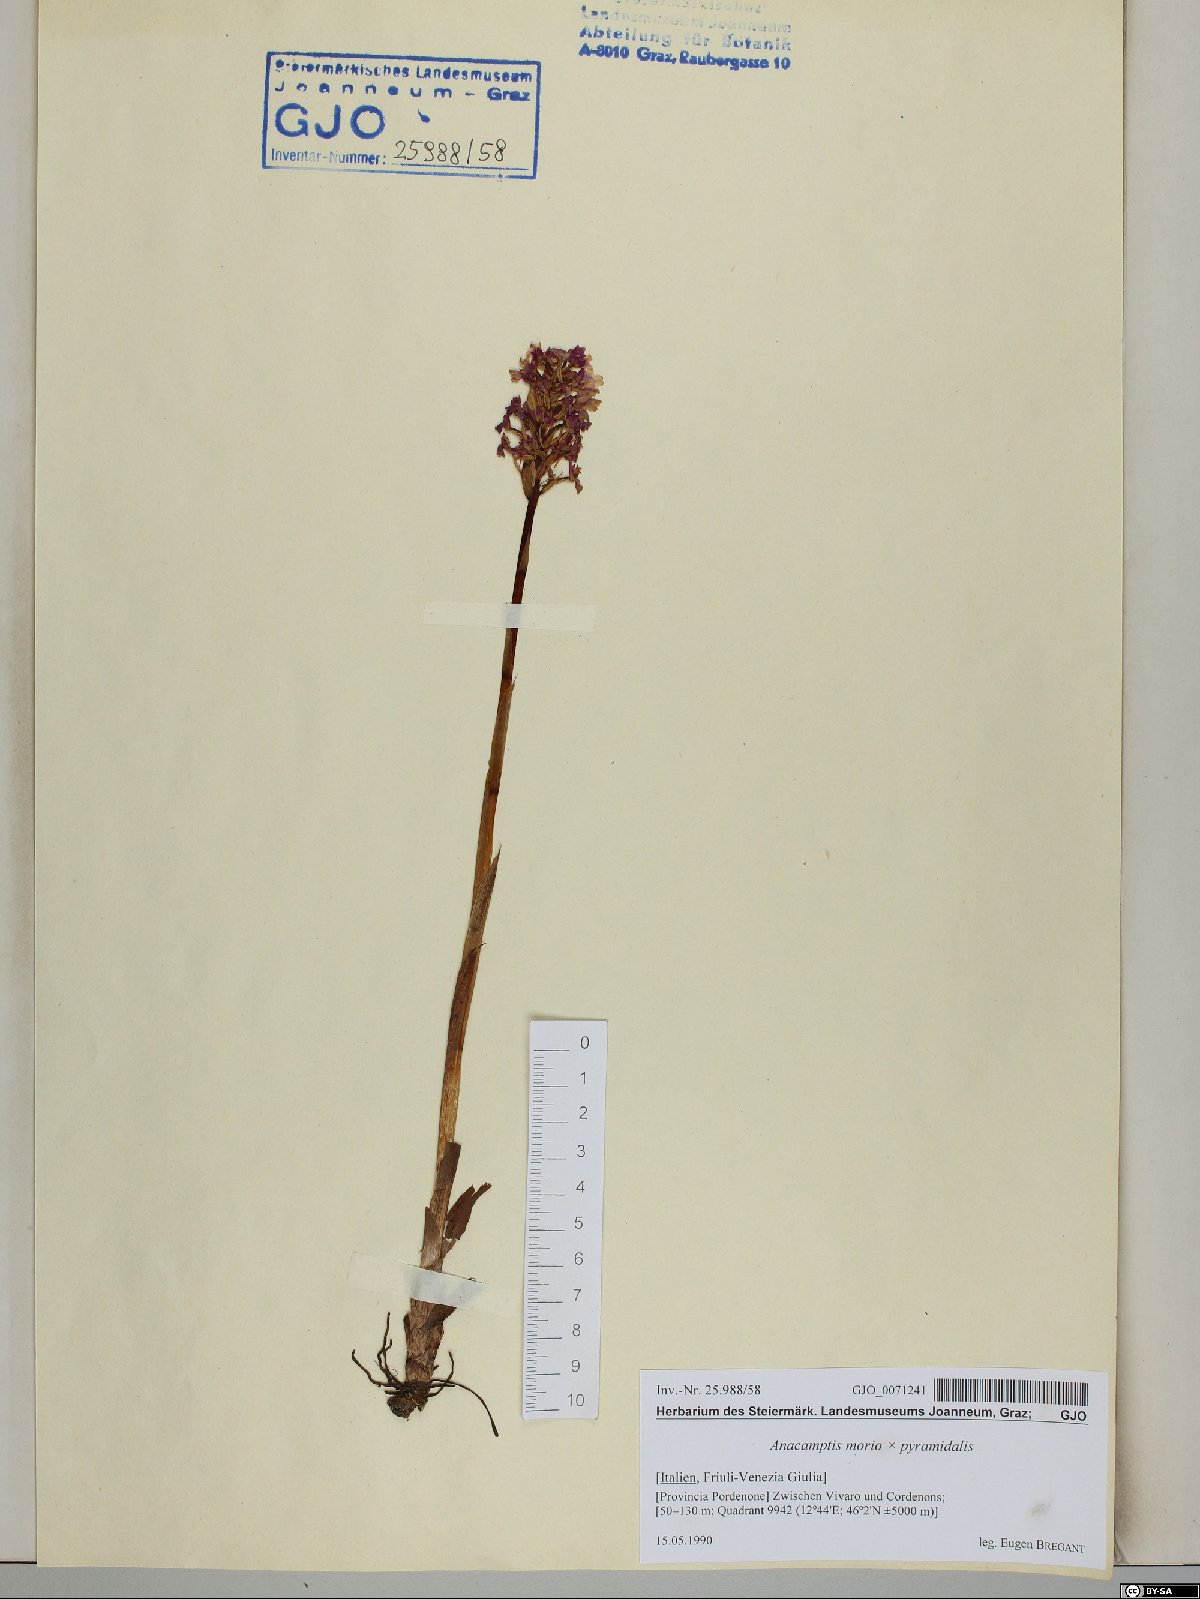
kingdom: Plantae
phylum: Tracheophyta
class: Liliopsida
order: Asparagales
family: Orchidaceae
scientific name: Orchidaceae
